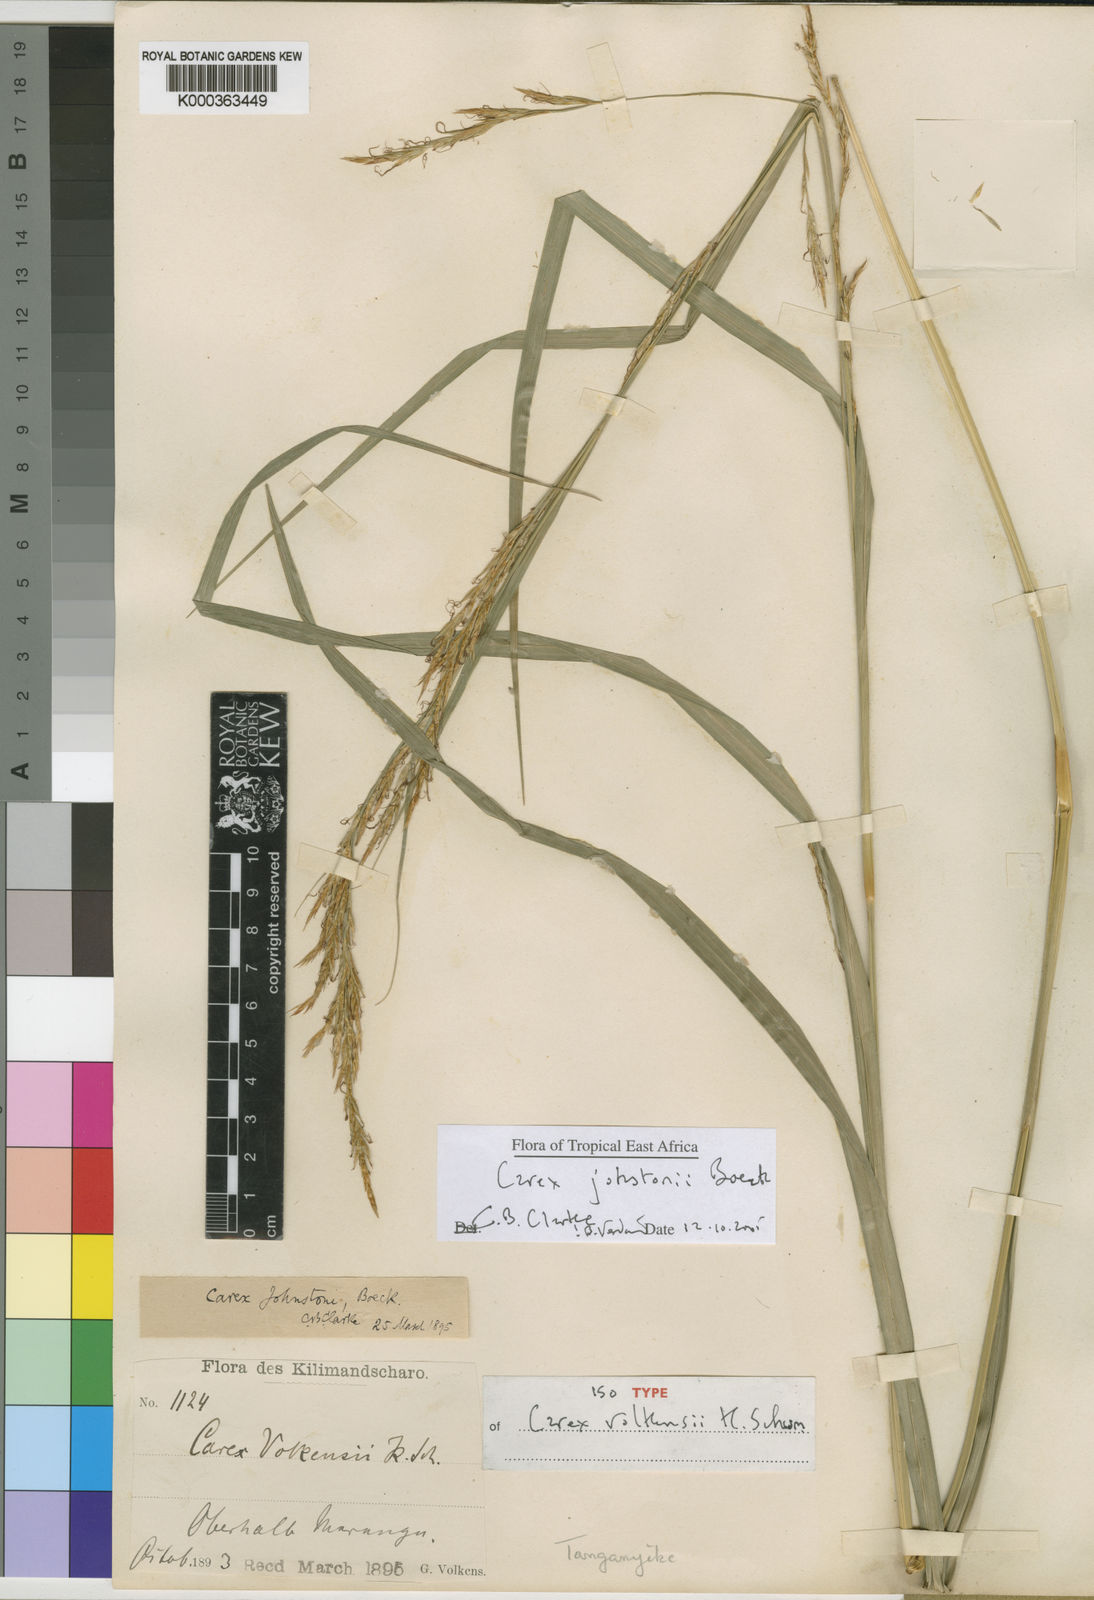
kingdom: Plantae
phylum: Tracheophyta
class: Liliopsida
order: Poales
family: Cyperaceae
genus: Carex
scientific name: Carex johnstonii
